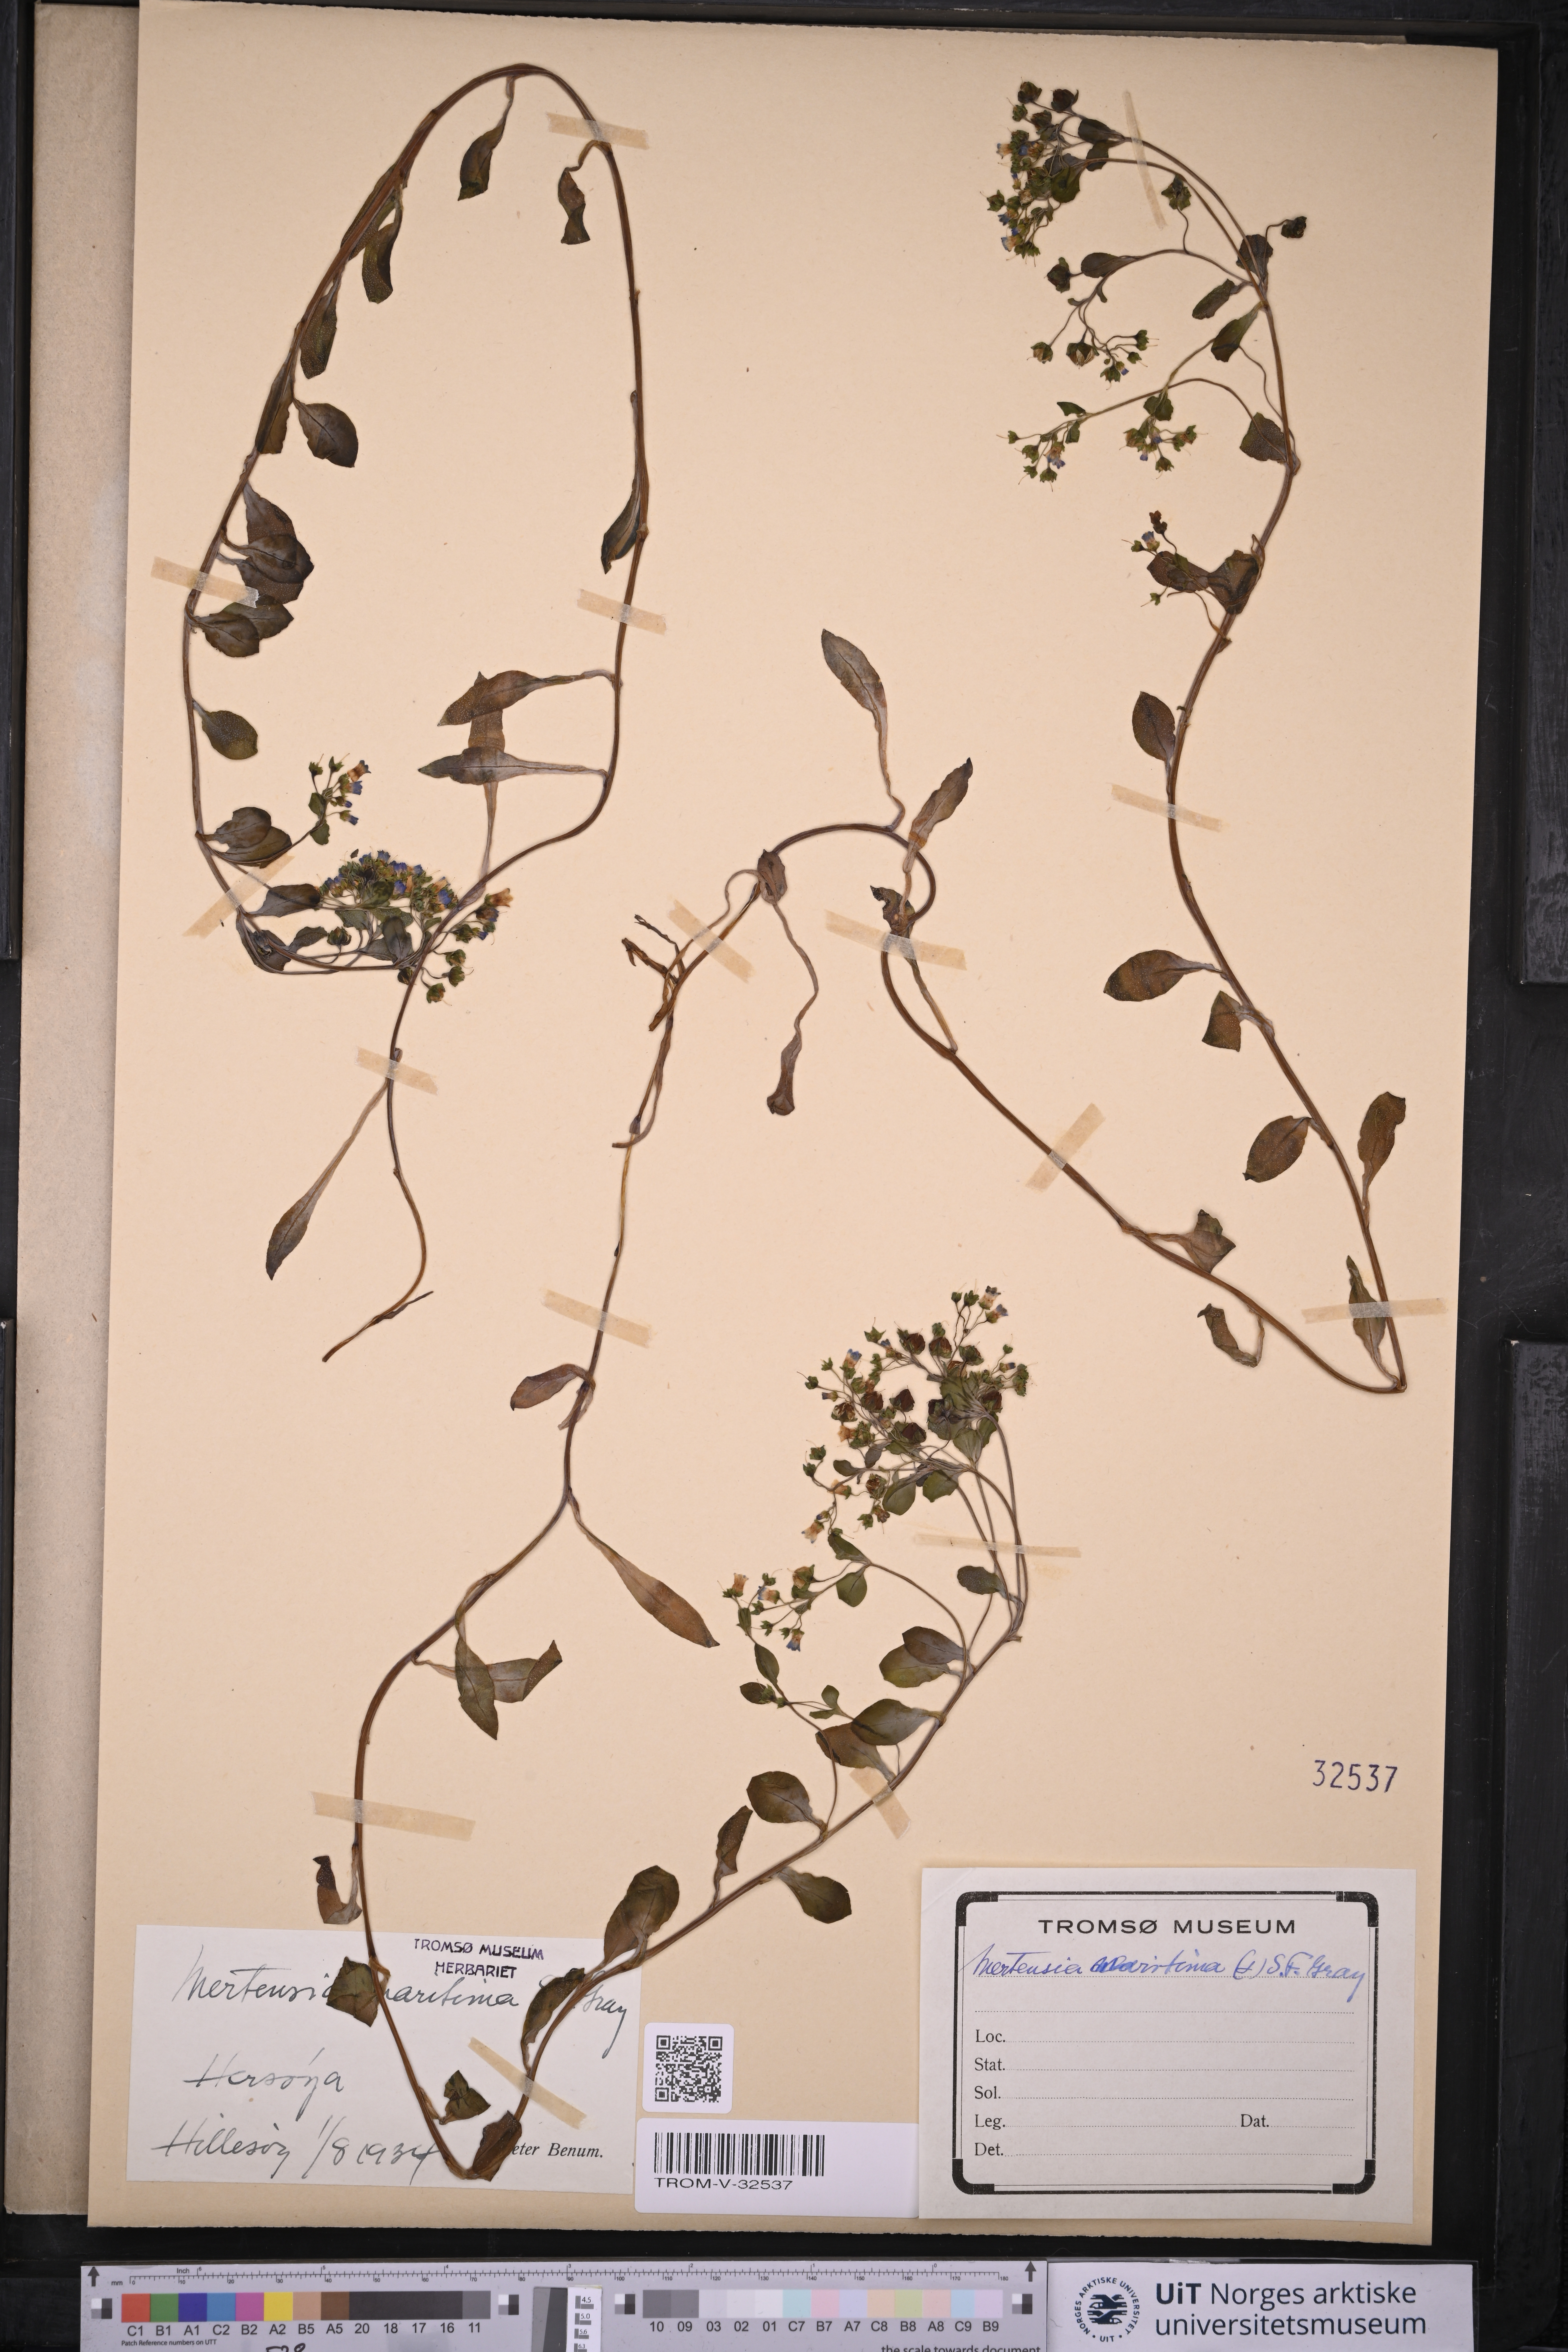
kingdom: Plantae
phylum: Tracheophyta
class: Magnoliopsida
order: Boraginales
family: Boraginaceae
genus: Mertensia
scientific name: Mertensia maritima
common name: Oysterplant
